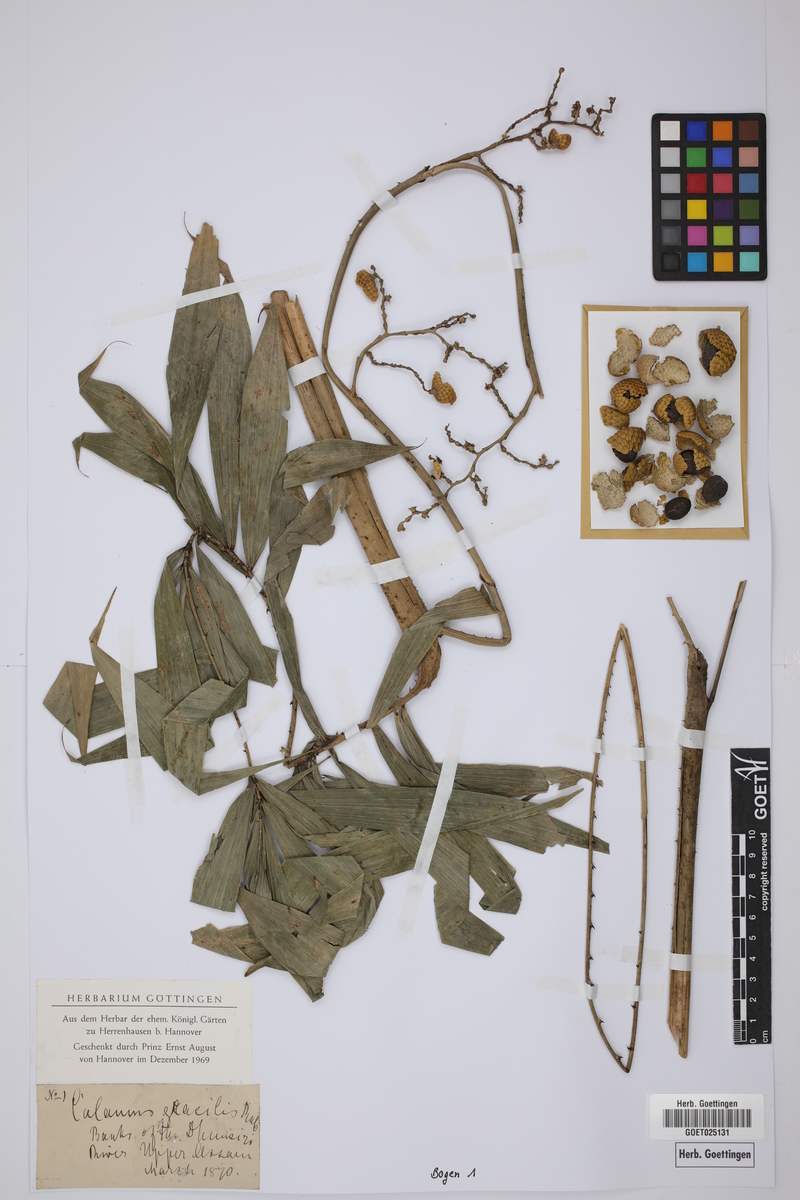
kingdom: Plantae
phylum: Tracheophyta
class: Liliopsida
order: Arecales
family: Arecaceae
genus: Calamus
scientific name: Calamus gracilis
